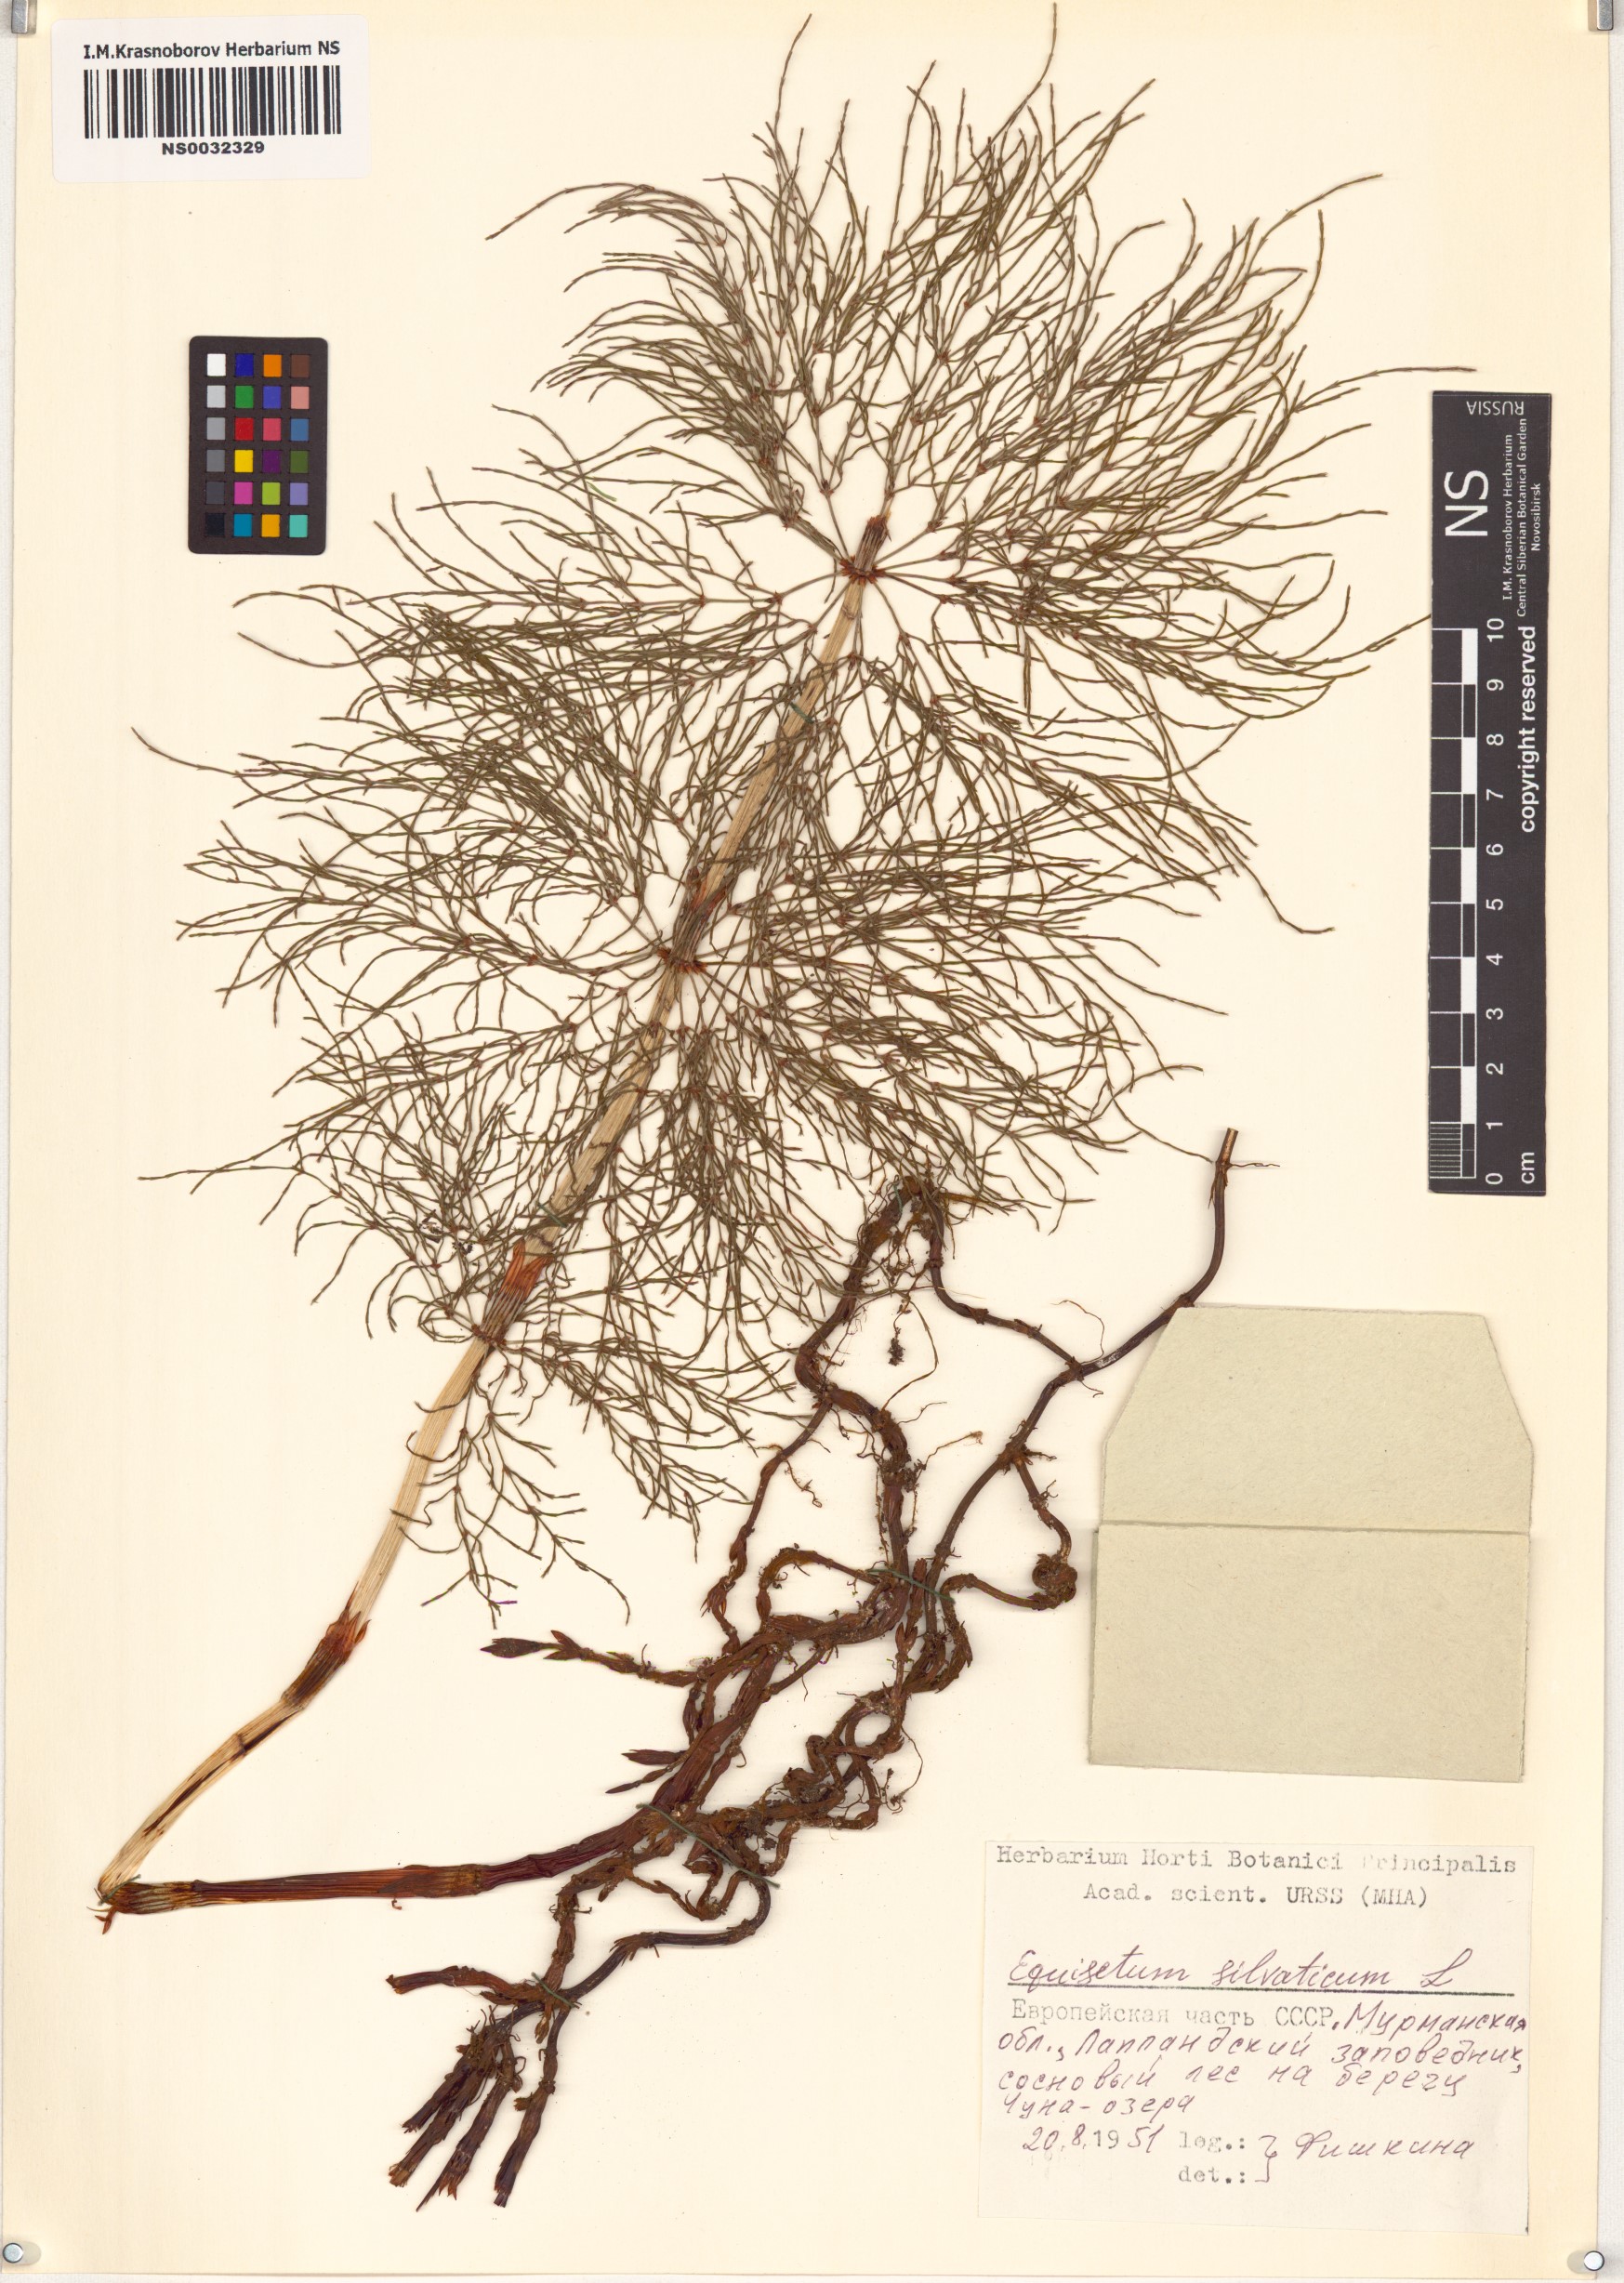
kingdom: Plantae
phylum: Tracheophyta
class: Polypodiopsida
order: Equisetales
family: Equisetaceae
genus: Equisetum
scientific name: Equisetum sylvaticum
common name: Wood horsetail
